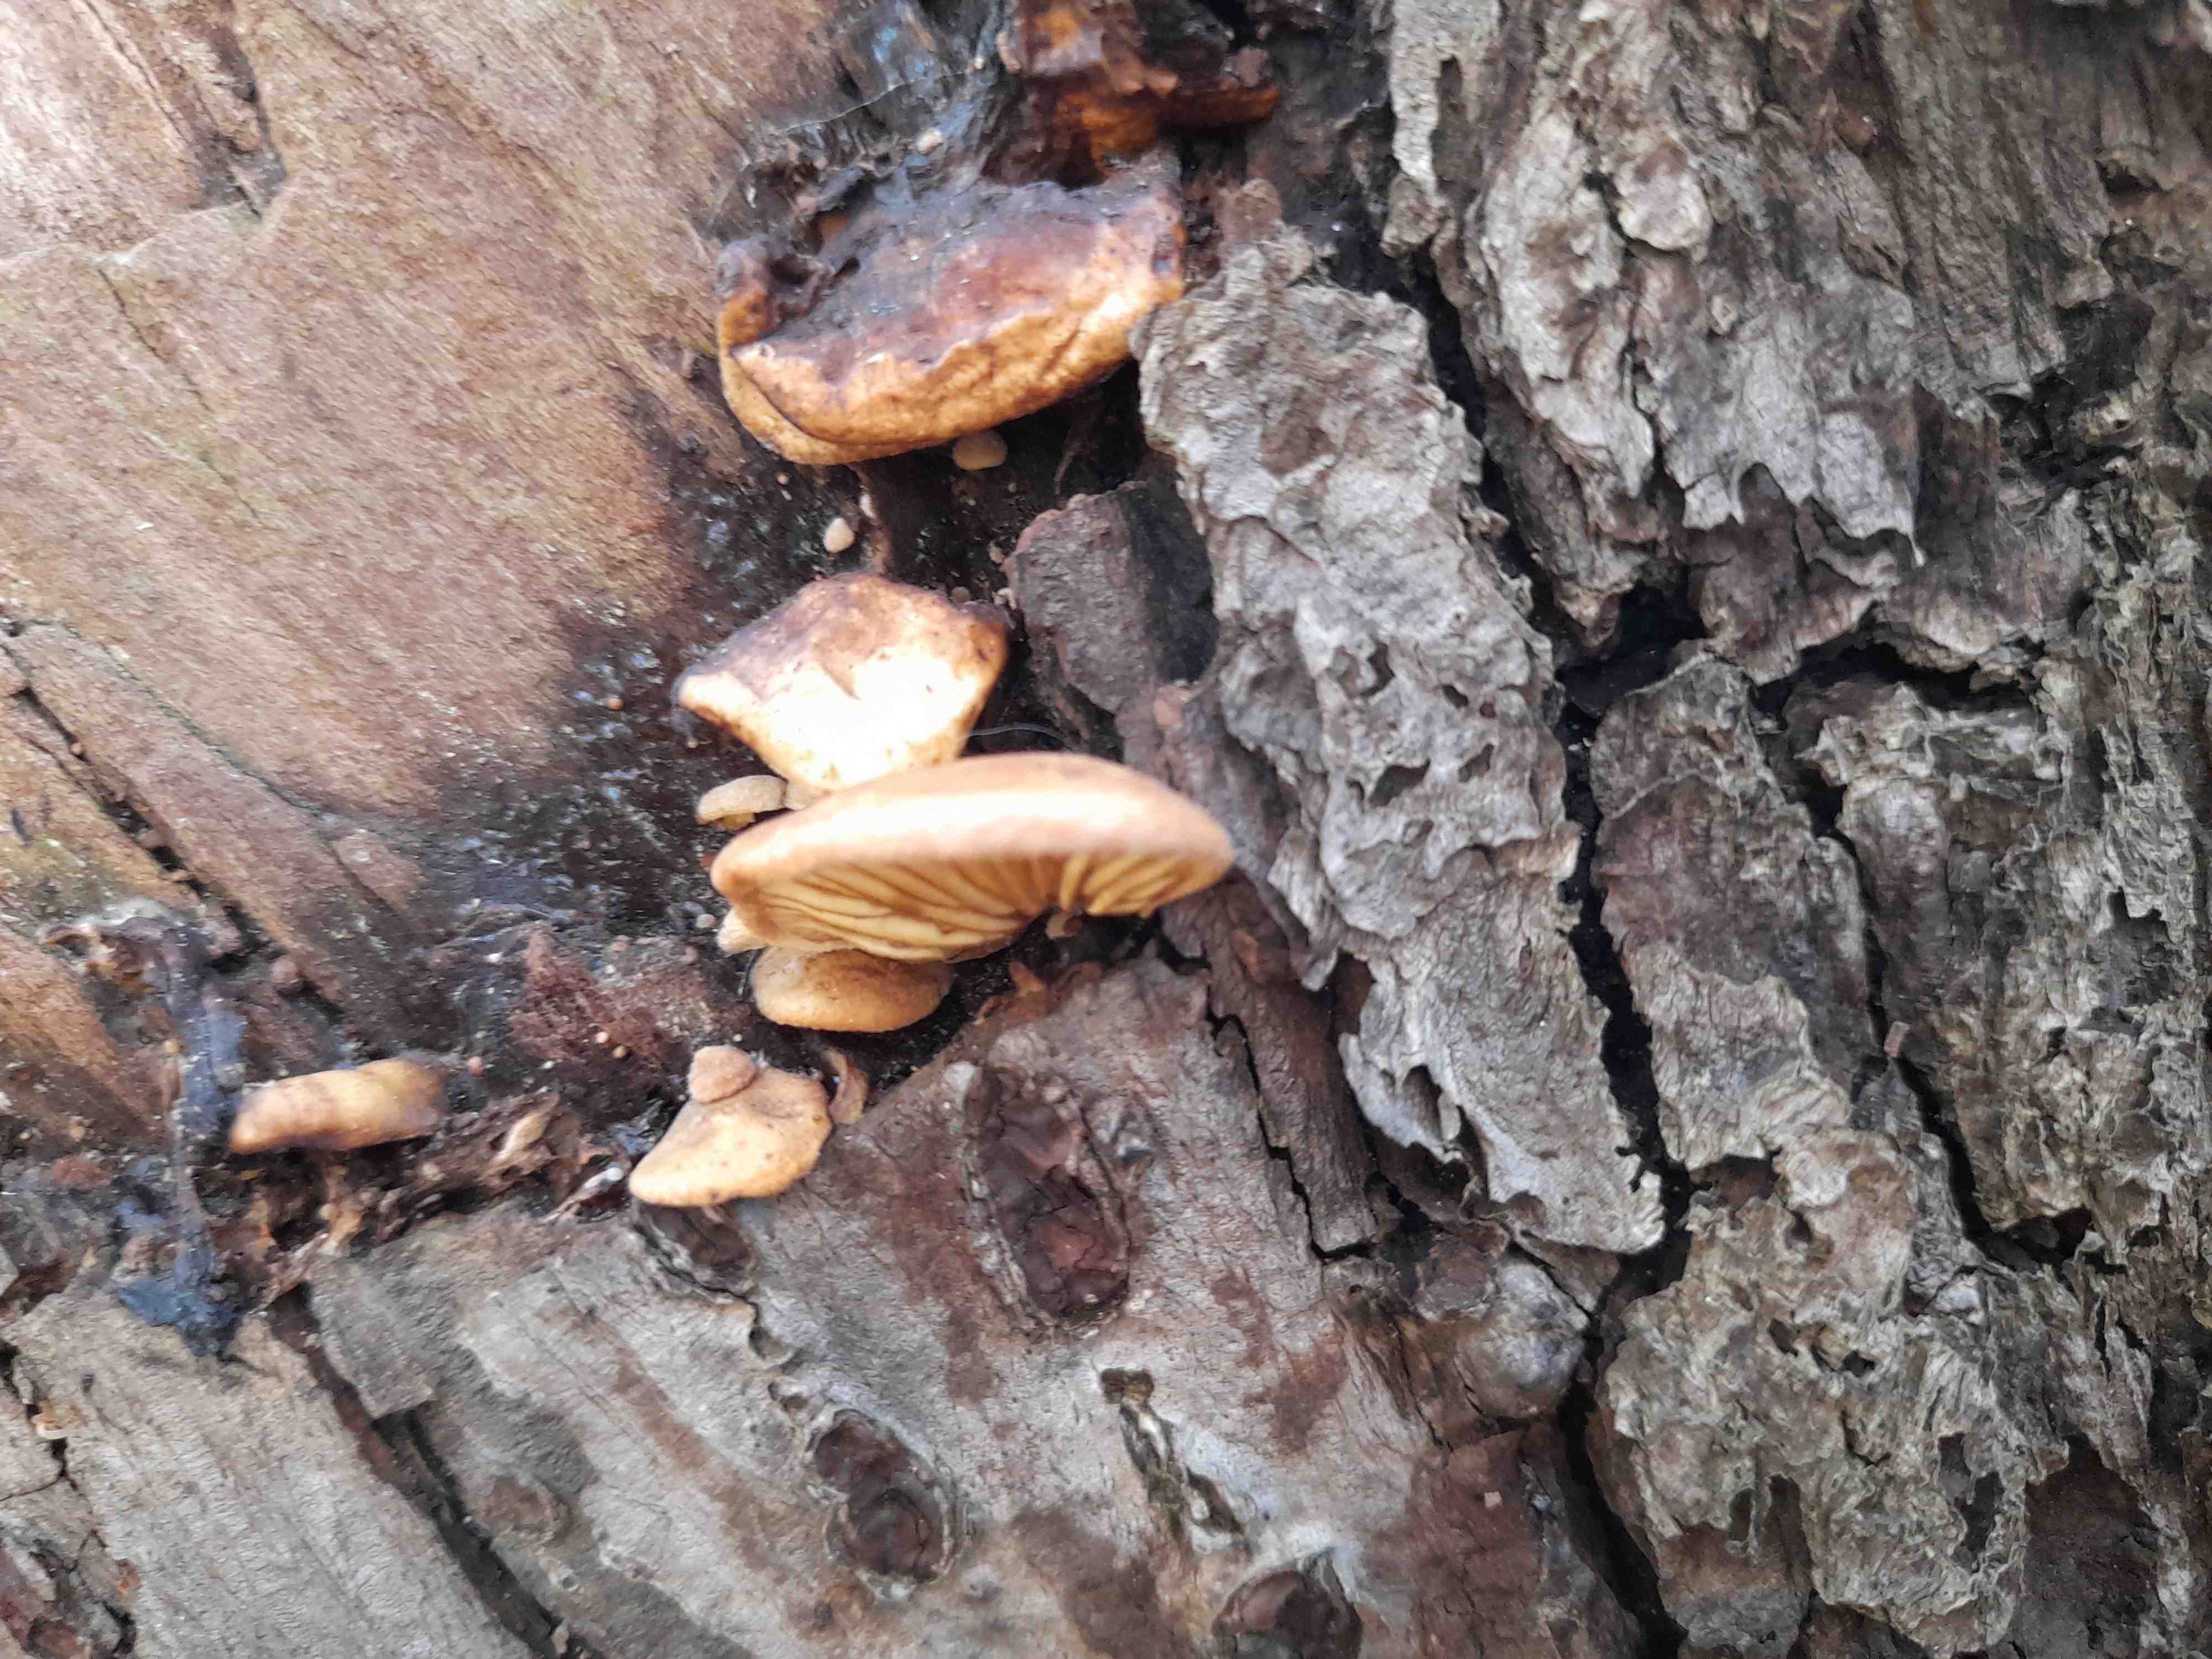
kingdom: Fungi
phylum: Basidiomycota
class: Agaricomycetes
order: Agaricales
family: Crepidotaceae
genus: Crepidotus
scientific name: Crepidotus mollis
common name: blød muslingesvamp
